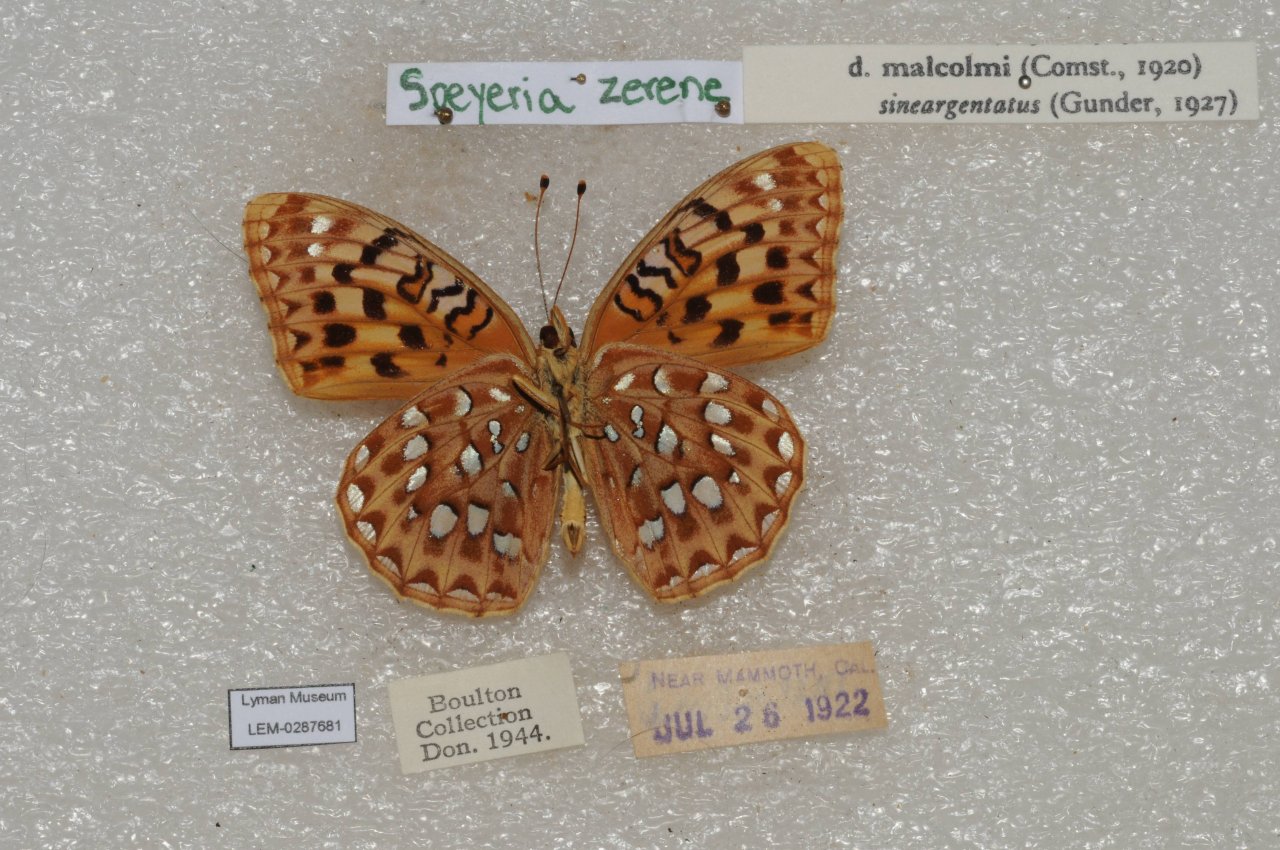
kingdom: Animalia
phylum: Arthropoda
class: Insecta
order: Lepidoptera
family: Nymphalidae
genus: Speyeria
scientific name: Speyeria zerene
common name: Zerene Fritillary
